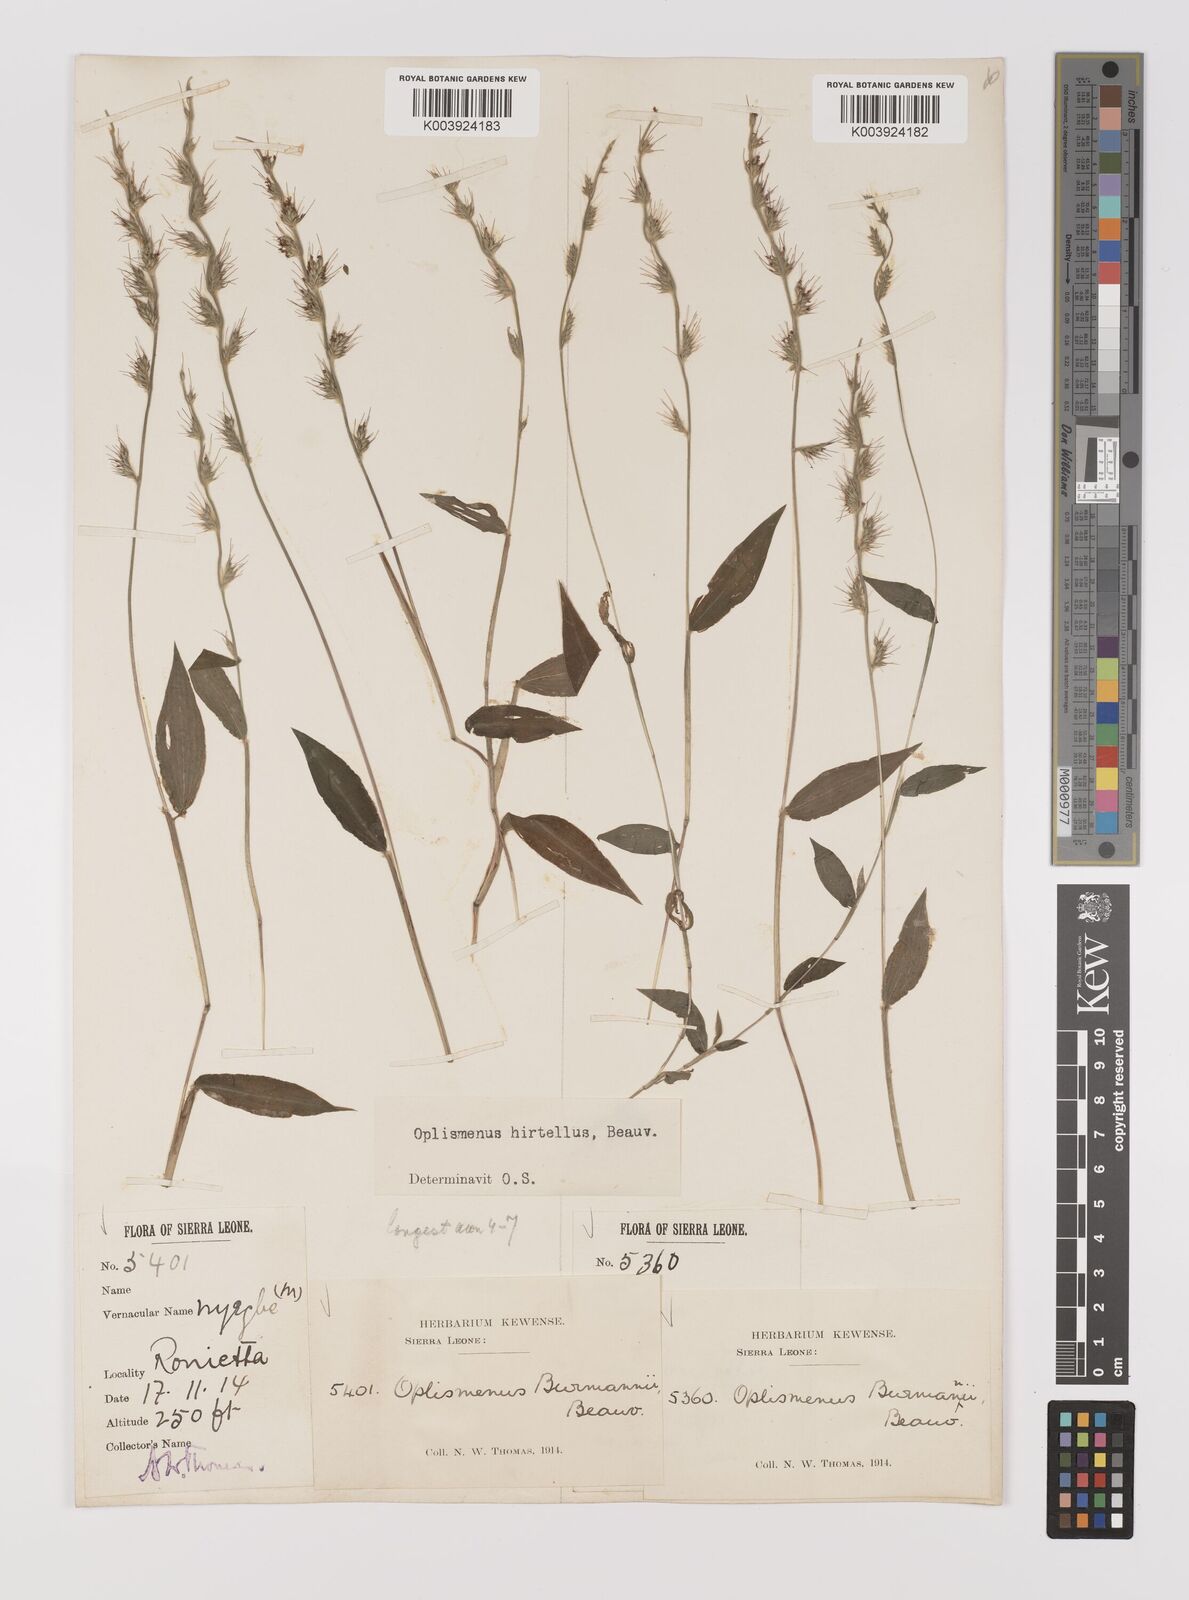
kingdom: Plantae
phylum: Tracheophyta
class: Liliopsida
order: Poales
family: Poaceae
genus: Oplismenus
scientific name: Oplismenus hirtellus
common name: Basketgrass
